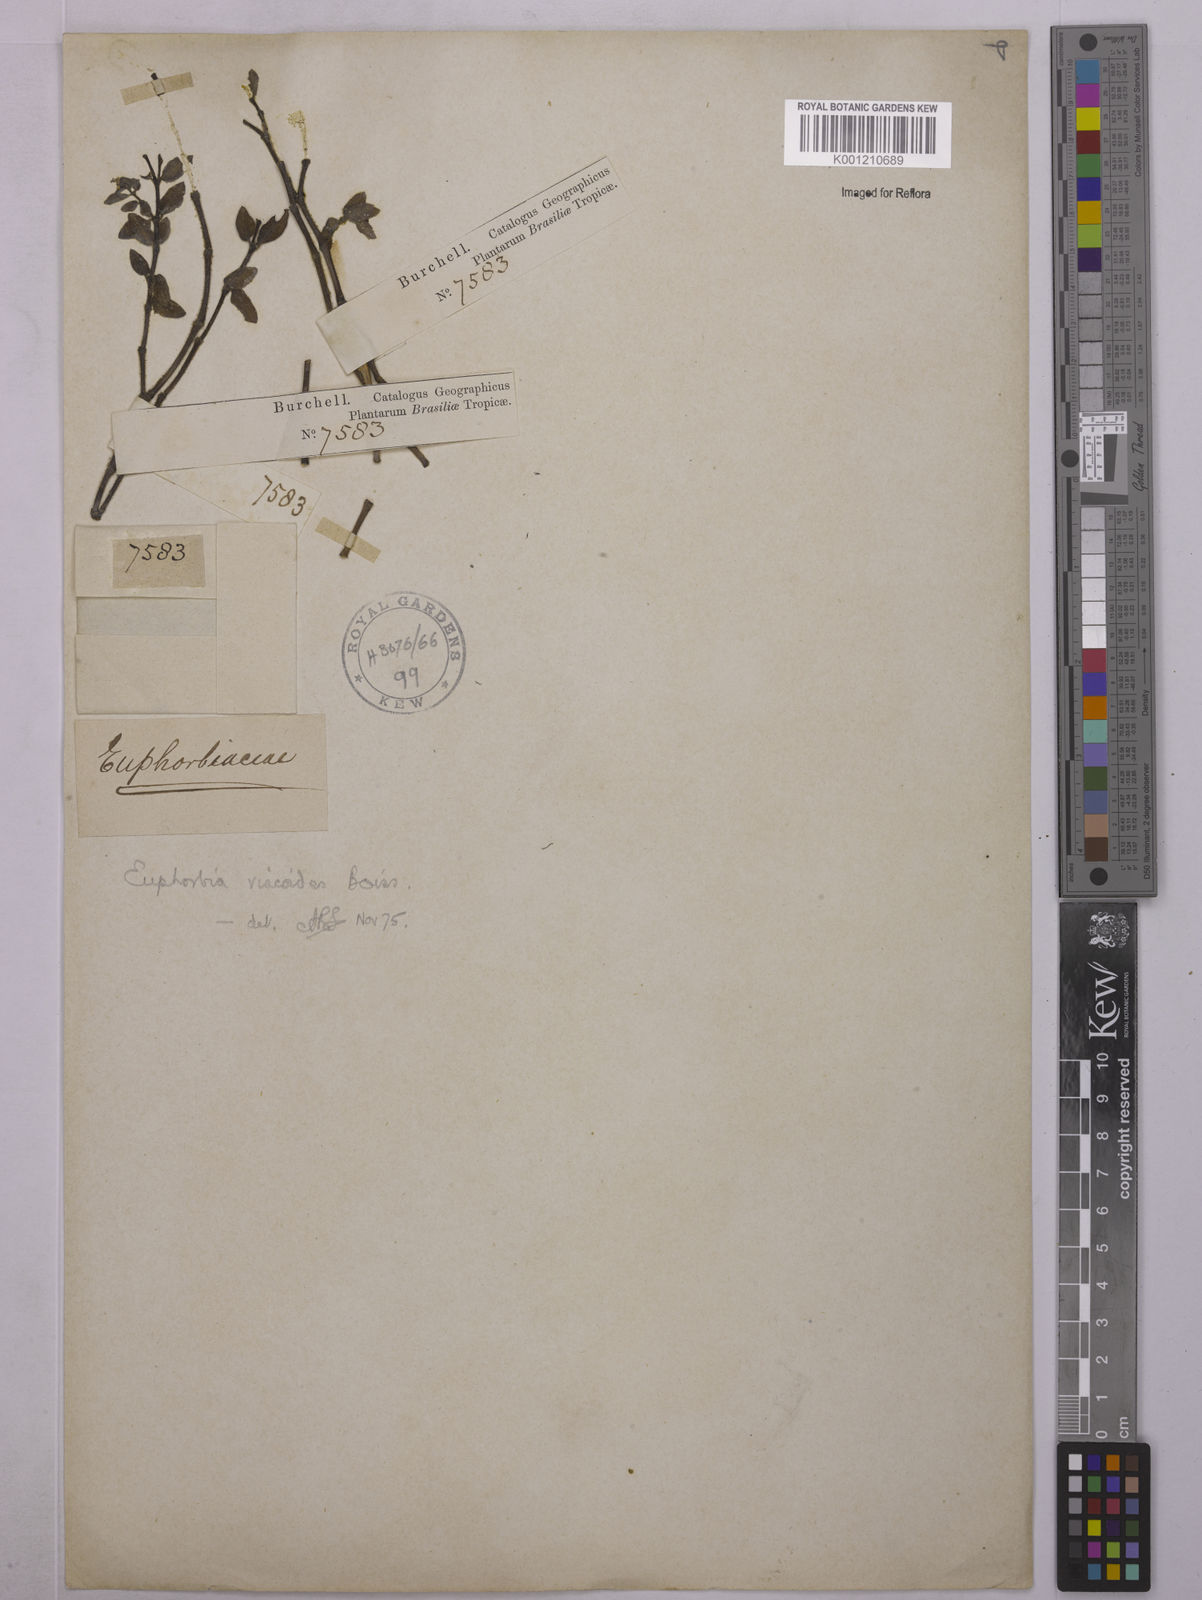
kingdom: Plantae
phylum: Tracheophyta
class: Magnoliopsida
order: Malpighiales
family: Euphorbiaceae
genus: Euphorbia
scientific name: Euphorbia viscoides
